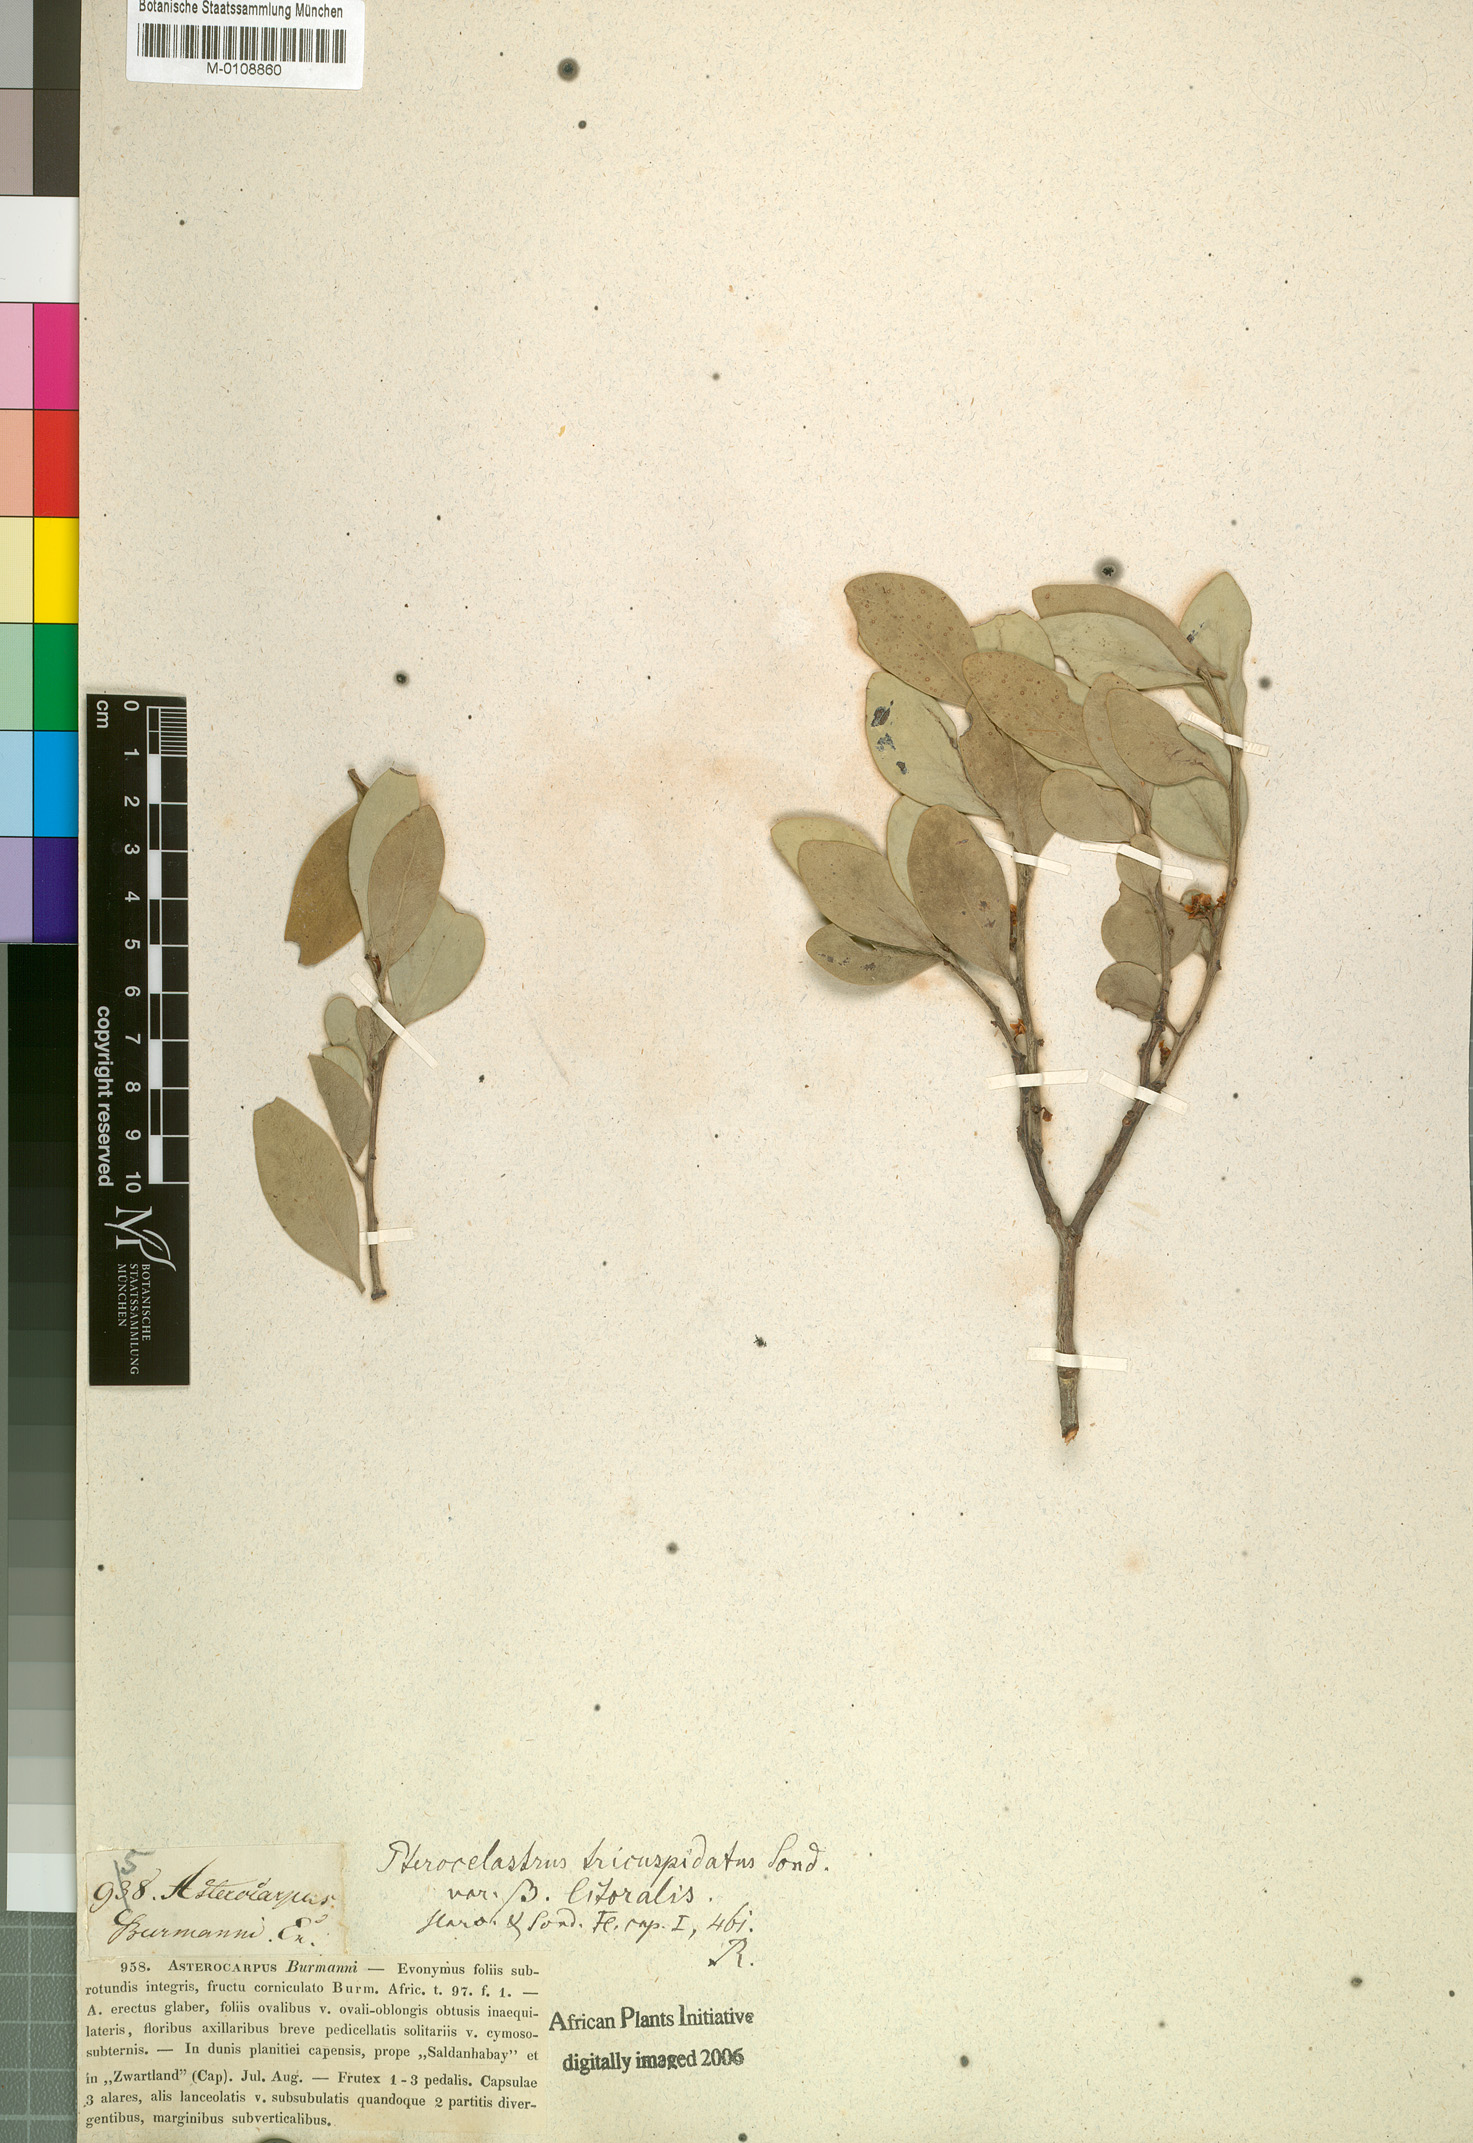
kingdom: Plantae
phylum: Tracheophyta
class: Magnoliopsida
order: Celastrales
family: Celastraceae
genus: Pterocelastrus
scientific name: Pterocelastrus tricuspidatus
